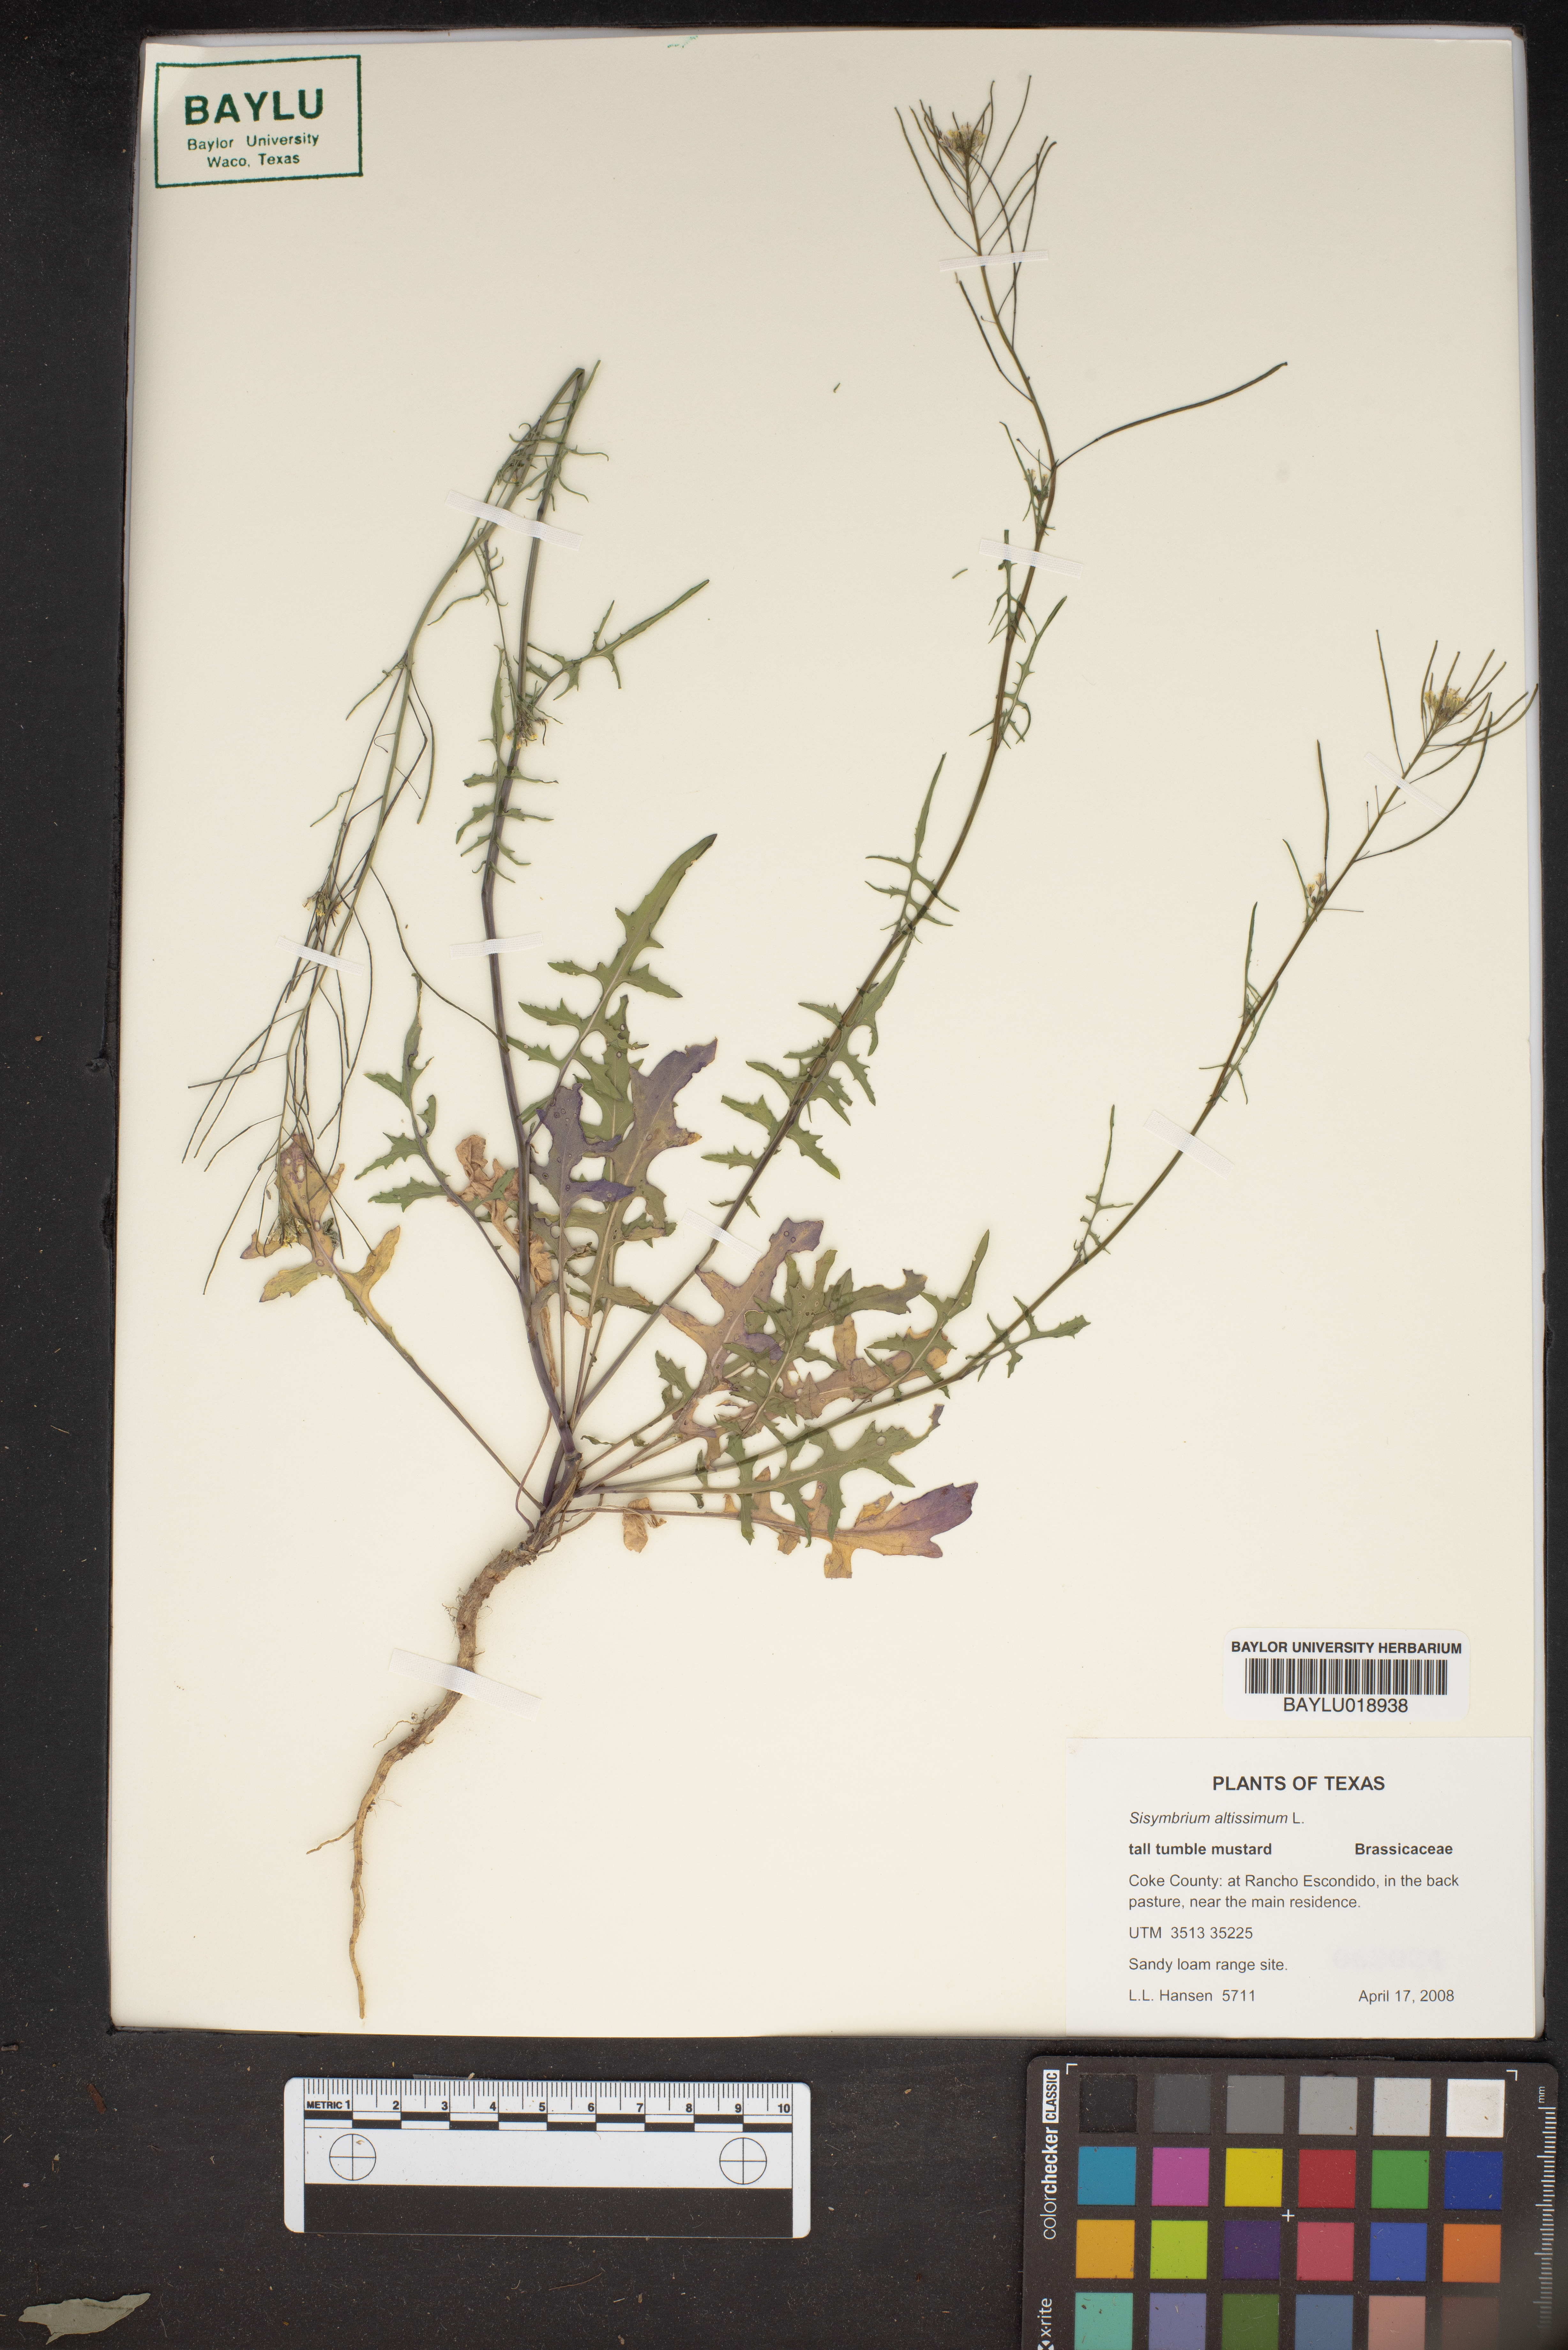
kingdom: Plantae
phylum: Tracheophyta
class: Magnoliopsida
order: Brassicales
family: Brassicaceae
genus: Sisymbrium
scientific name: Sisymbrium altissimum
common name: Tall rocket
